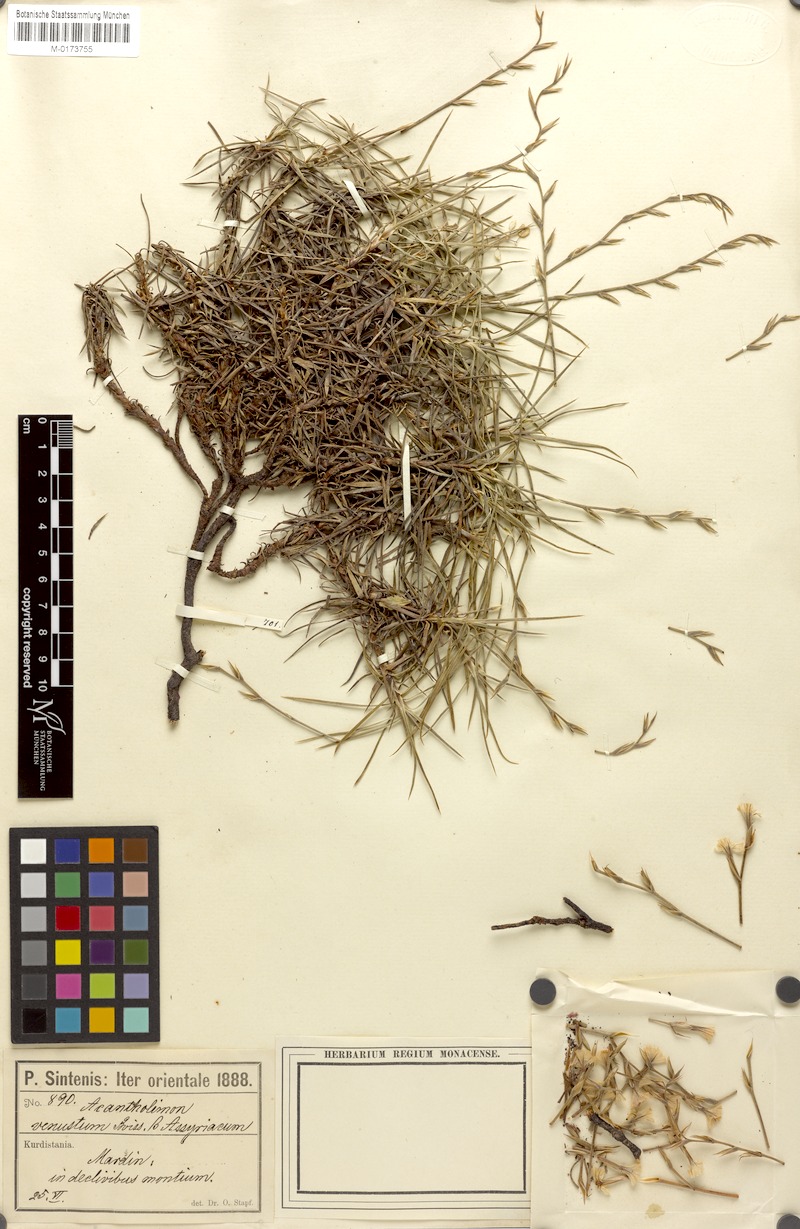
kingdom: Plantae
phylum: Tracheophyta
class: Magnoliopsida
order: Caryophyllales
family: Plumbaginaceae
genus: Acantholimon
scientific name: Acantholimon venustum
